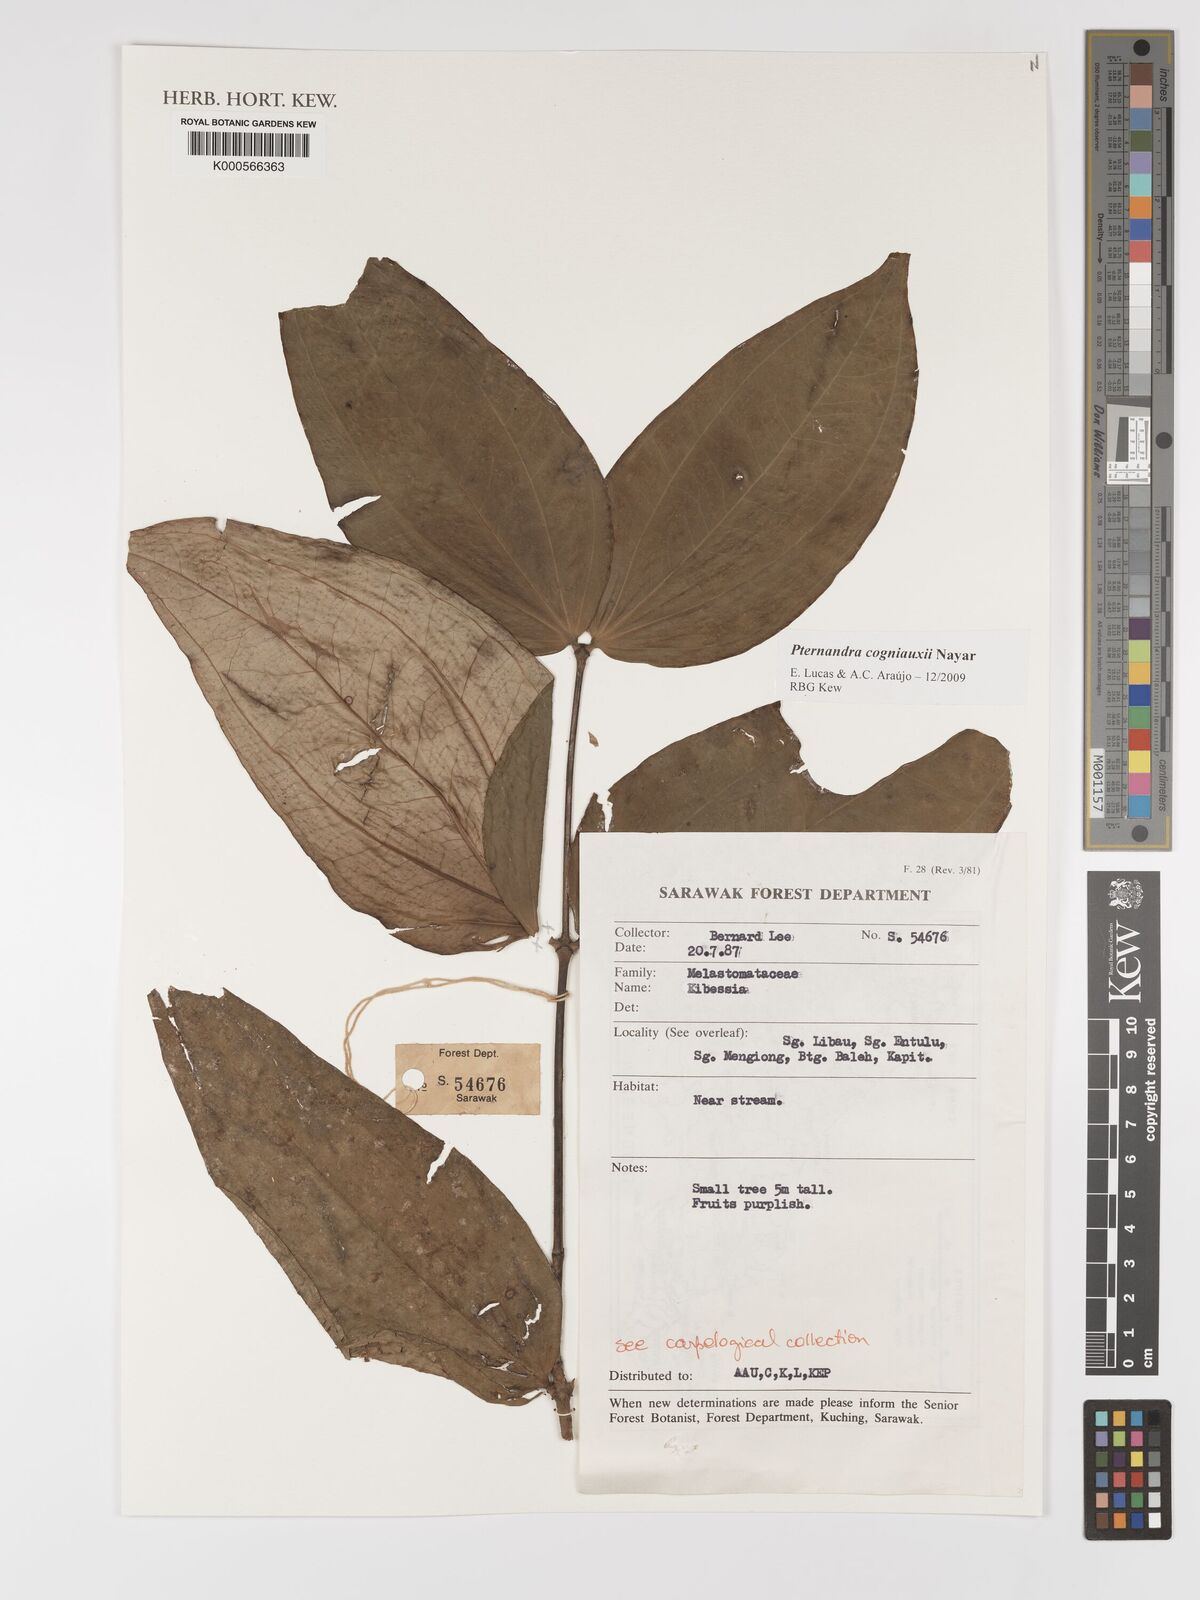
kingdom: Plantae
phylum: Tracheophyta
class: Magnoliopsida
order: Myrtales
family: Melastomataceae
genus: Pternandra
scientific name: Pternandra cogniauxii
